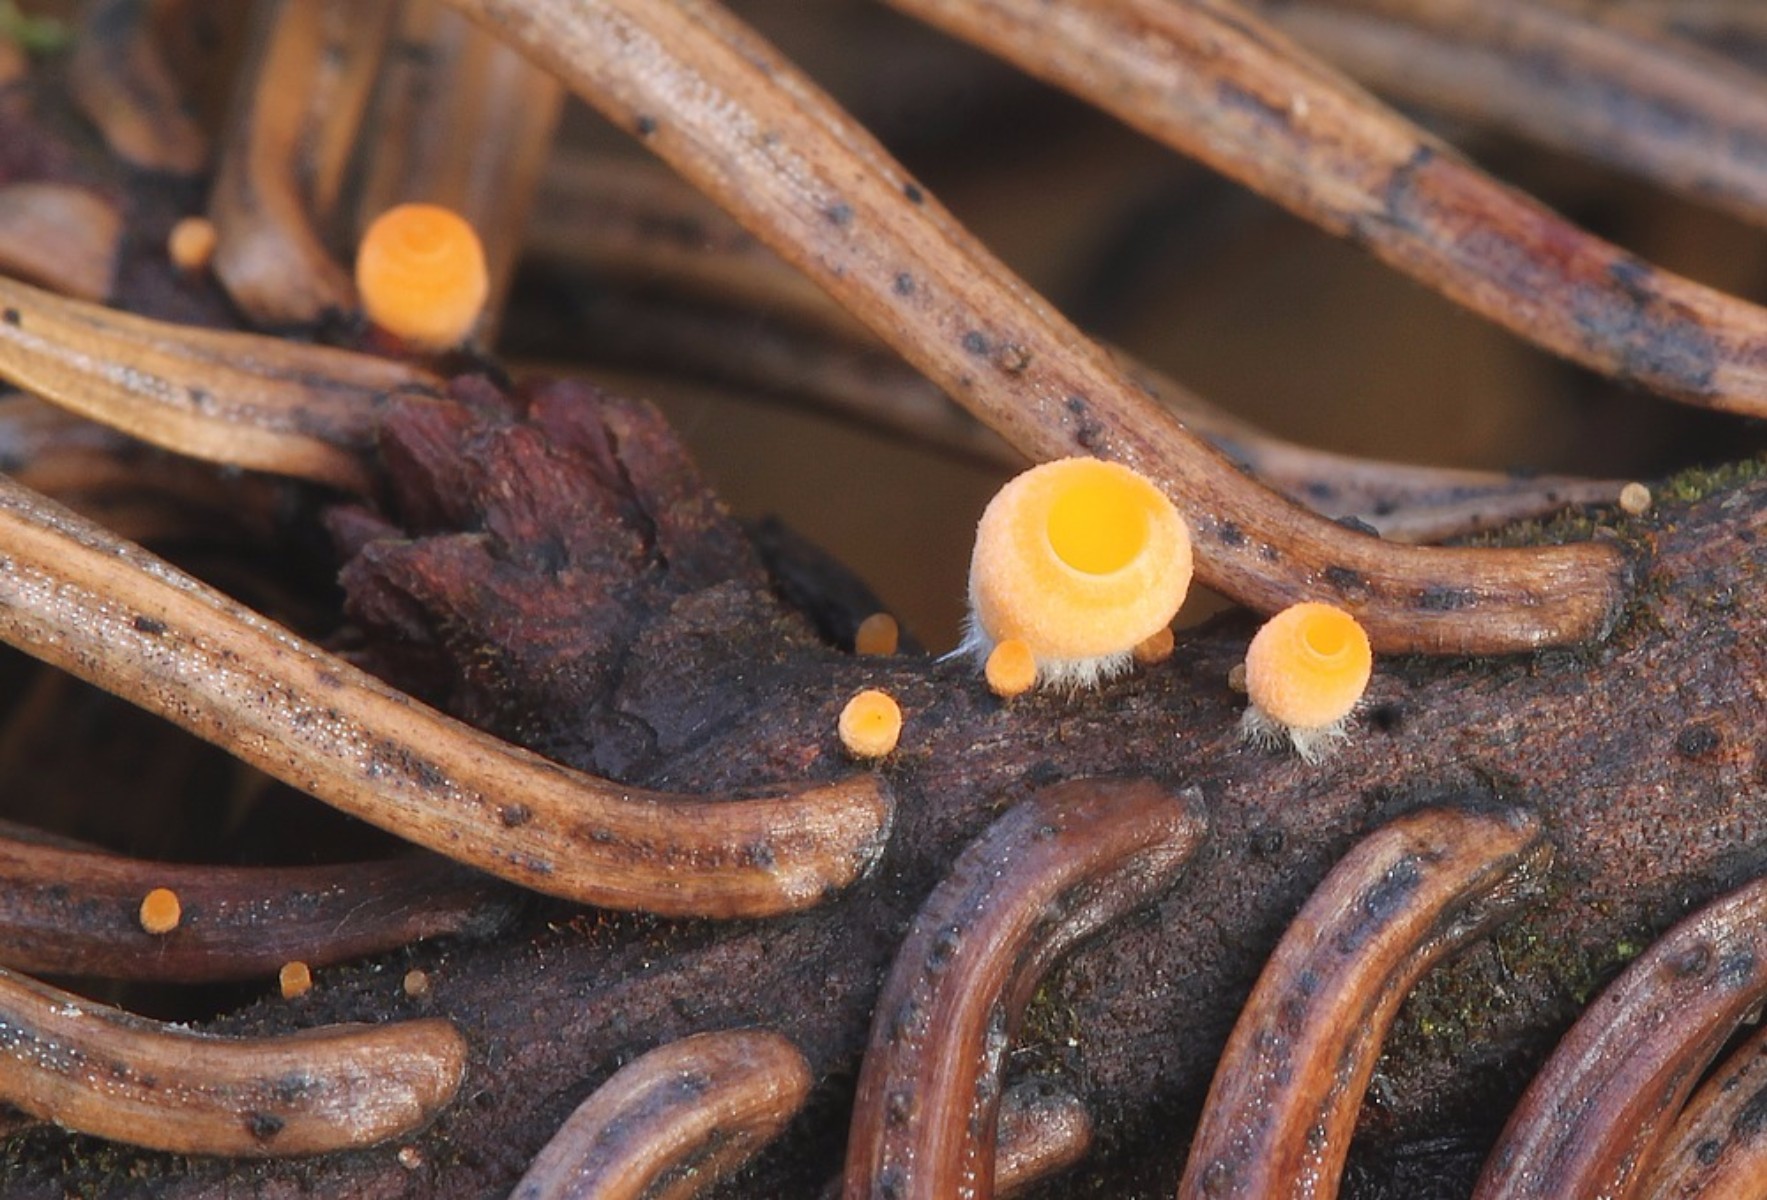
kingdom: Fungi
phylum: Ascomycota
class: Pezizomycetes
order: Pezizales
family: Sarcoscyphaceae
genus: Pithya
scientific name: Pithya vulgaris
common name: stor dukatbæger
